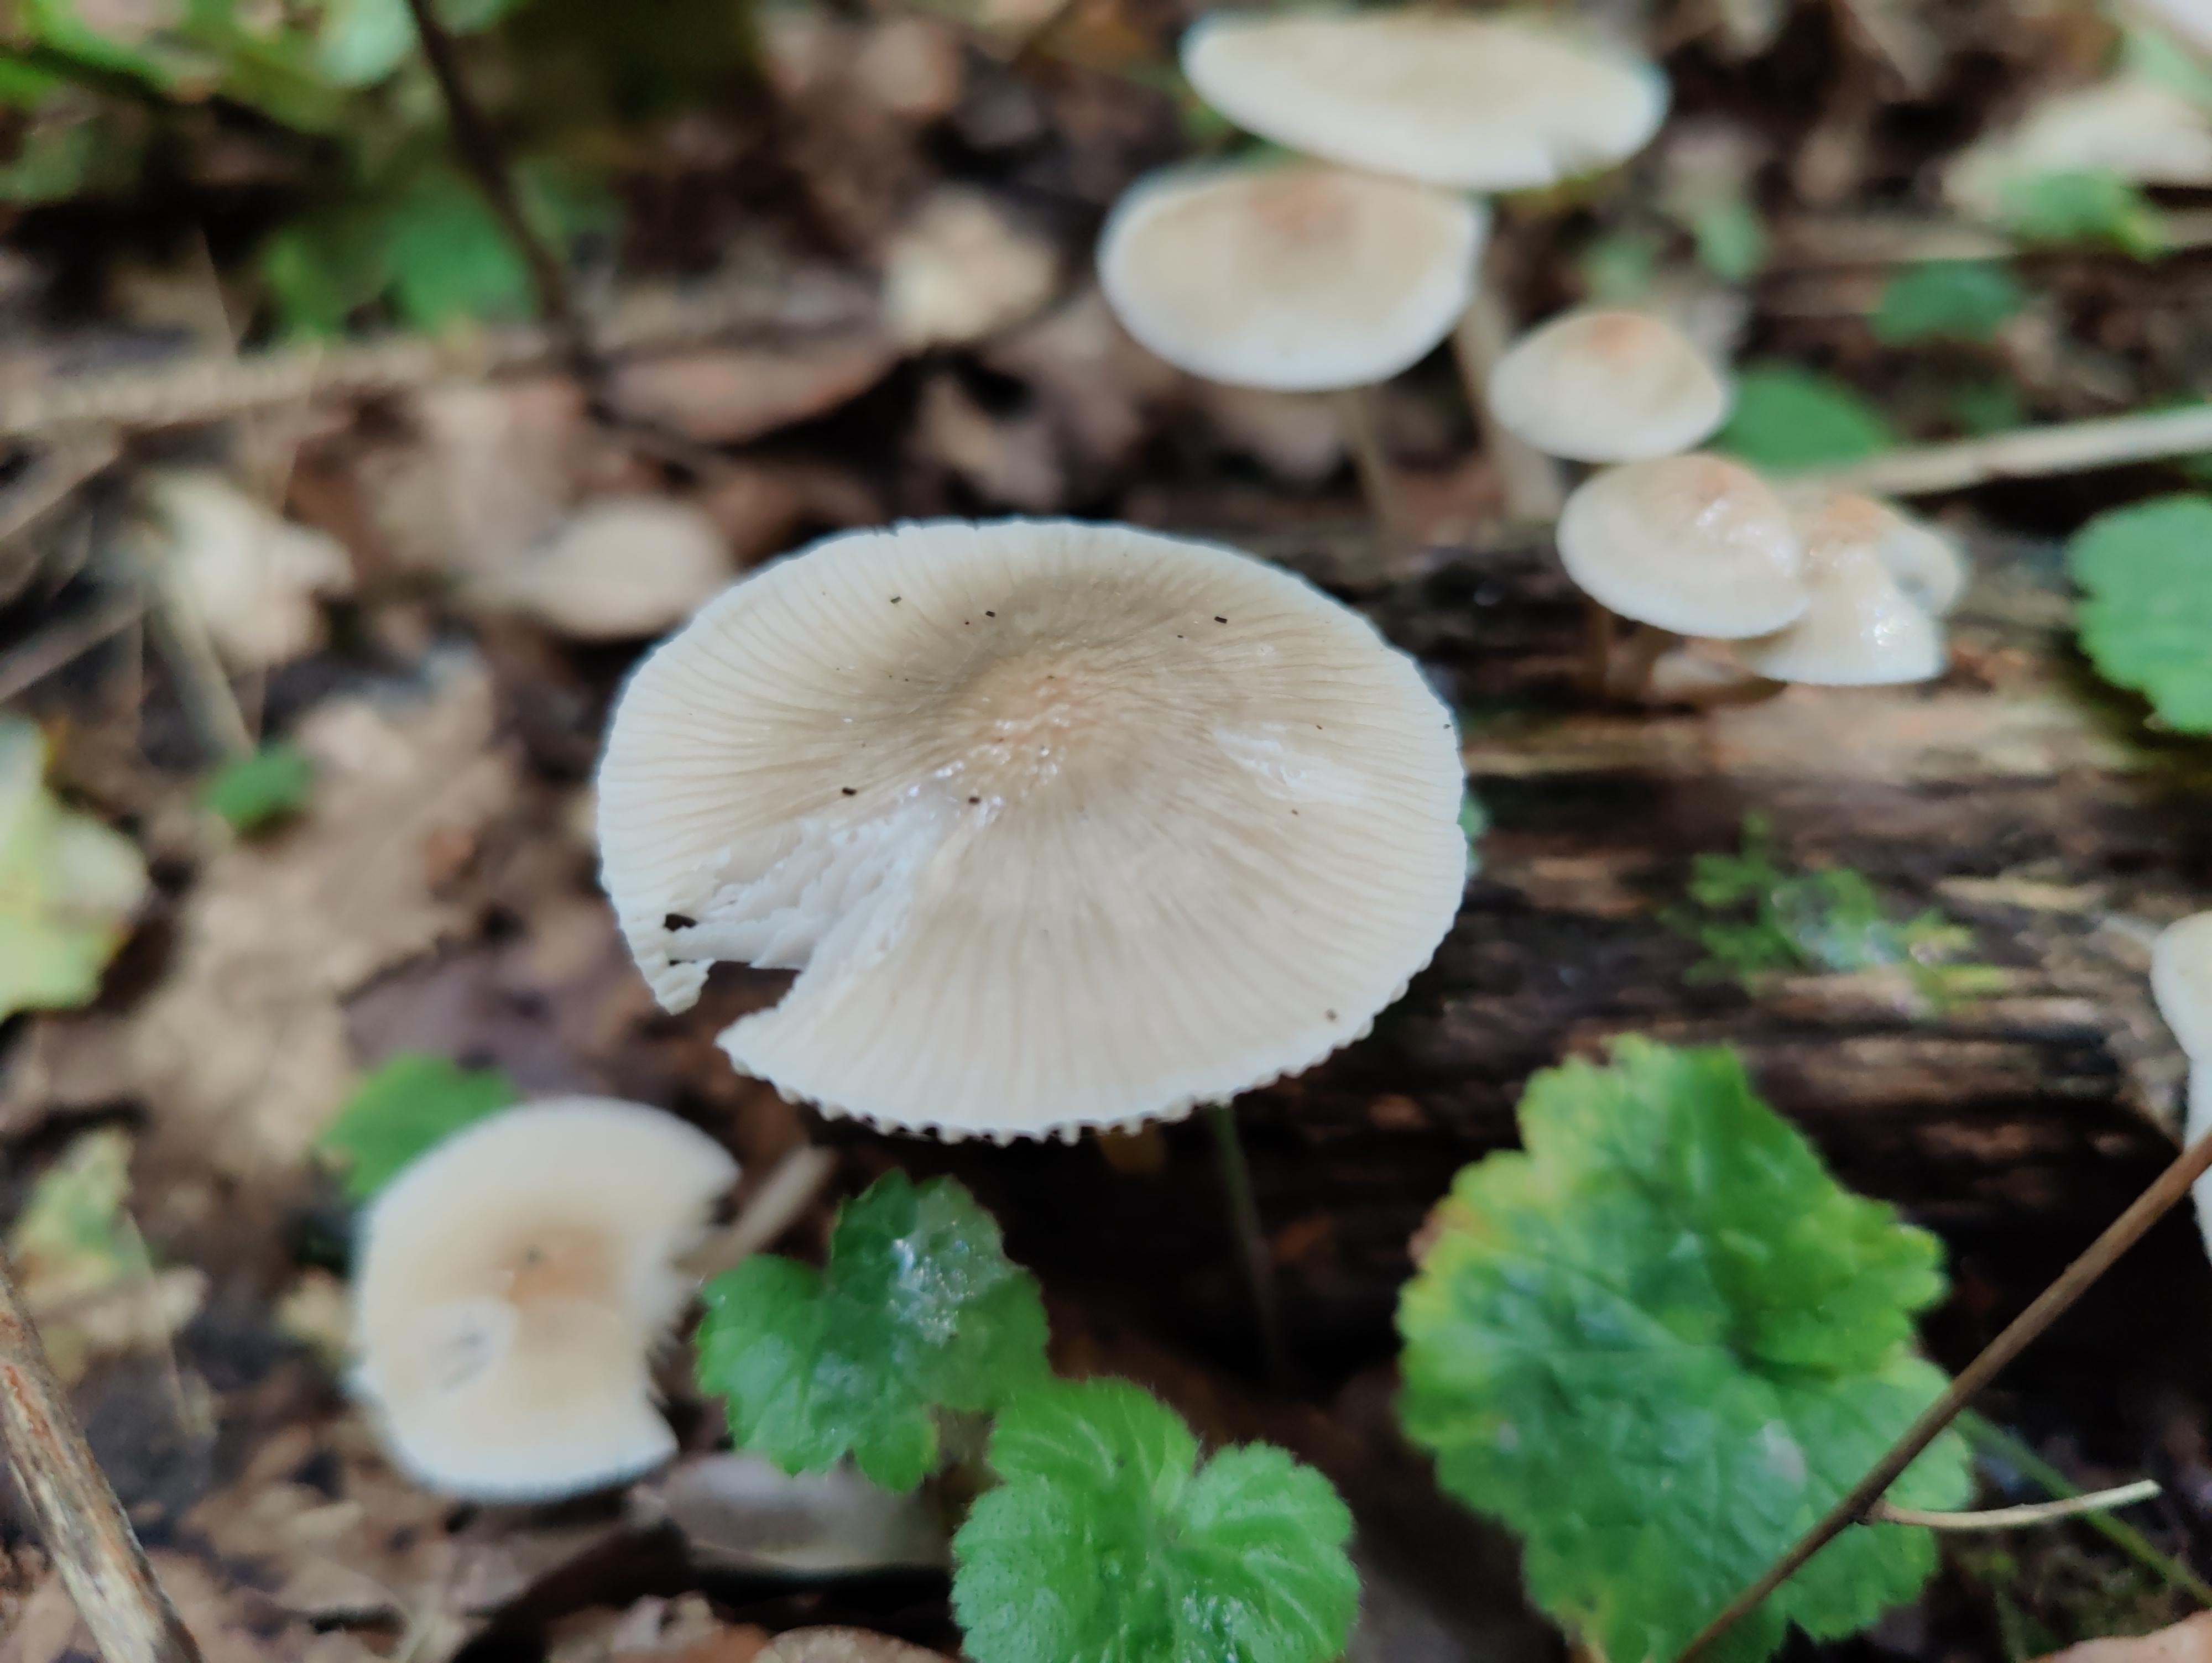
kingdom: Fungi
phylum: Basidiomycota
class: Agaricomycetes
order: Agaricales
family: Mycenaceae
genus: Mycena
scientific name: Mycena galericulata
